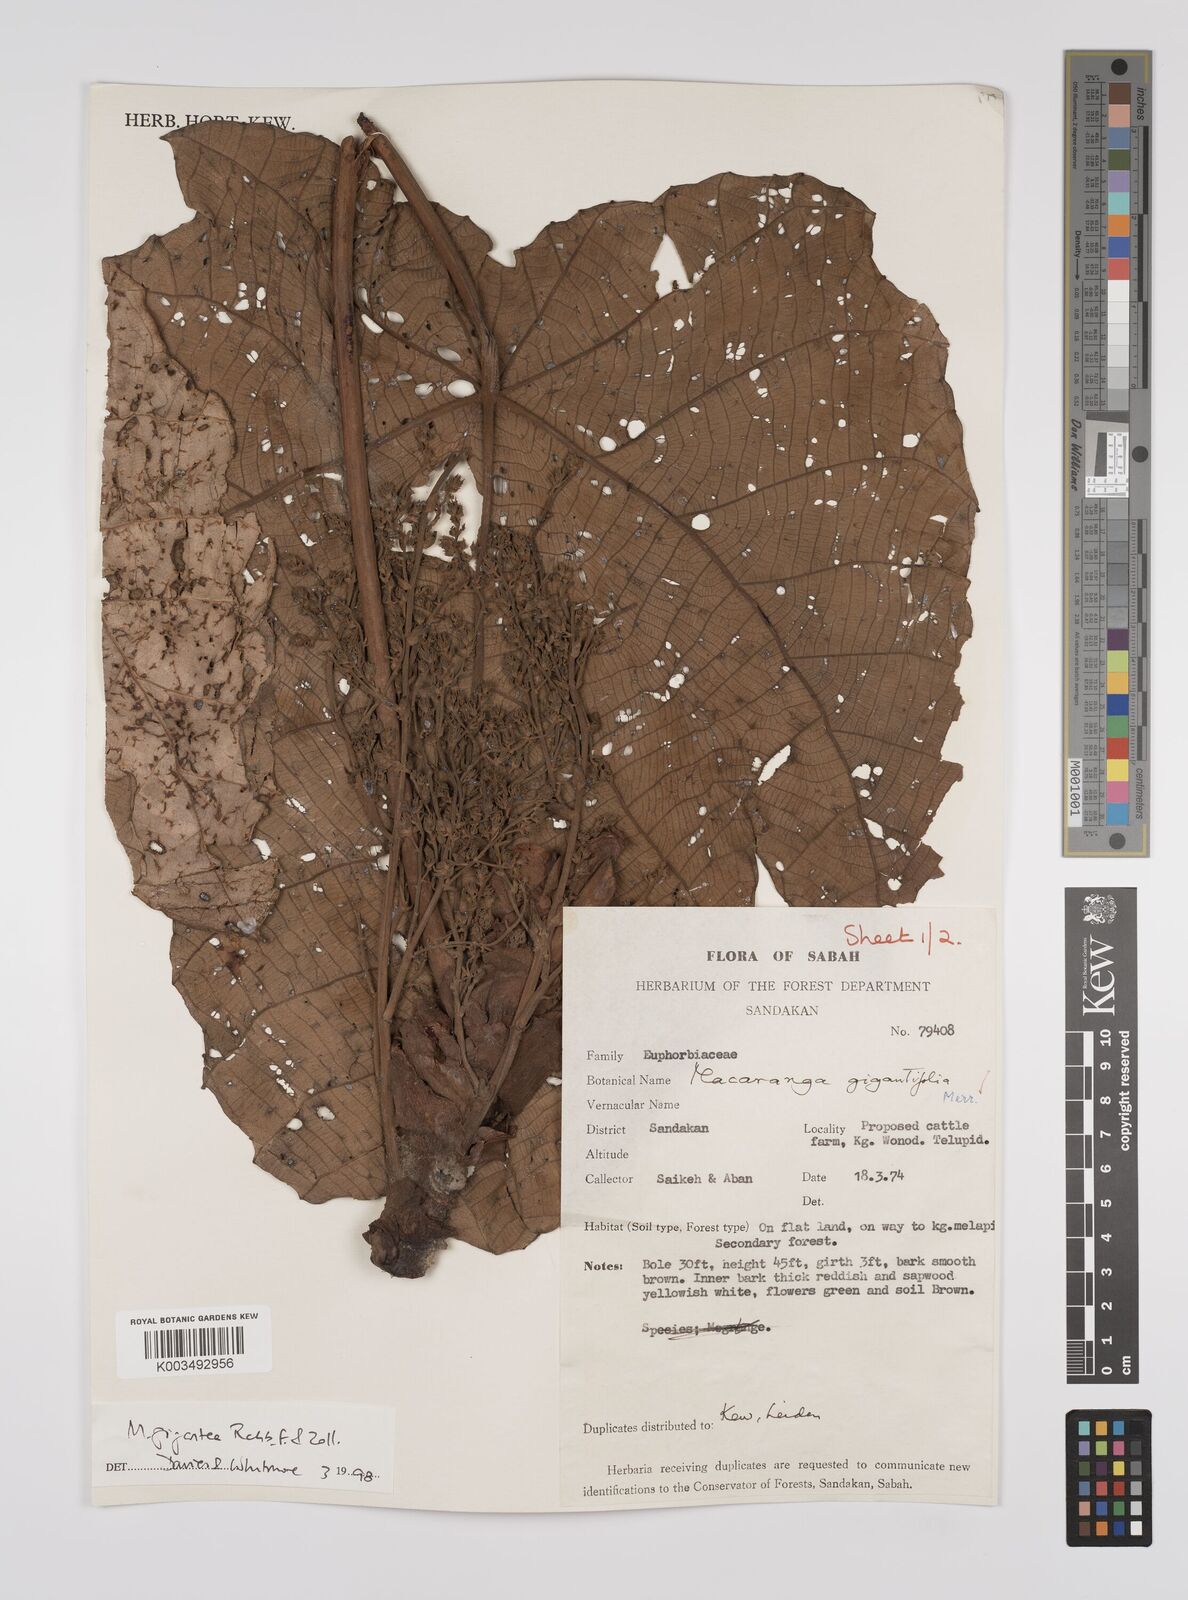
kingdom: Plantae
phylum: Tracheophyta
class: Magnoliopsida
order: Malpighiales
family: Euphorbiaceae
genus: Macaranga
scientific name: Macaranga gigantea
